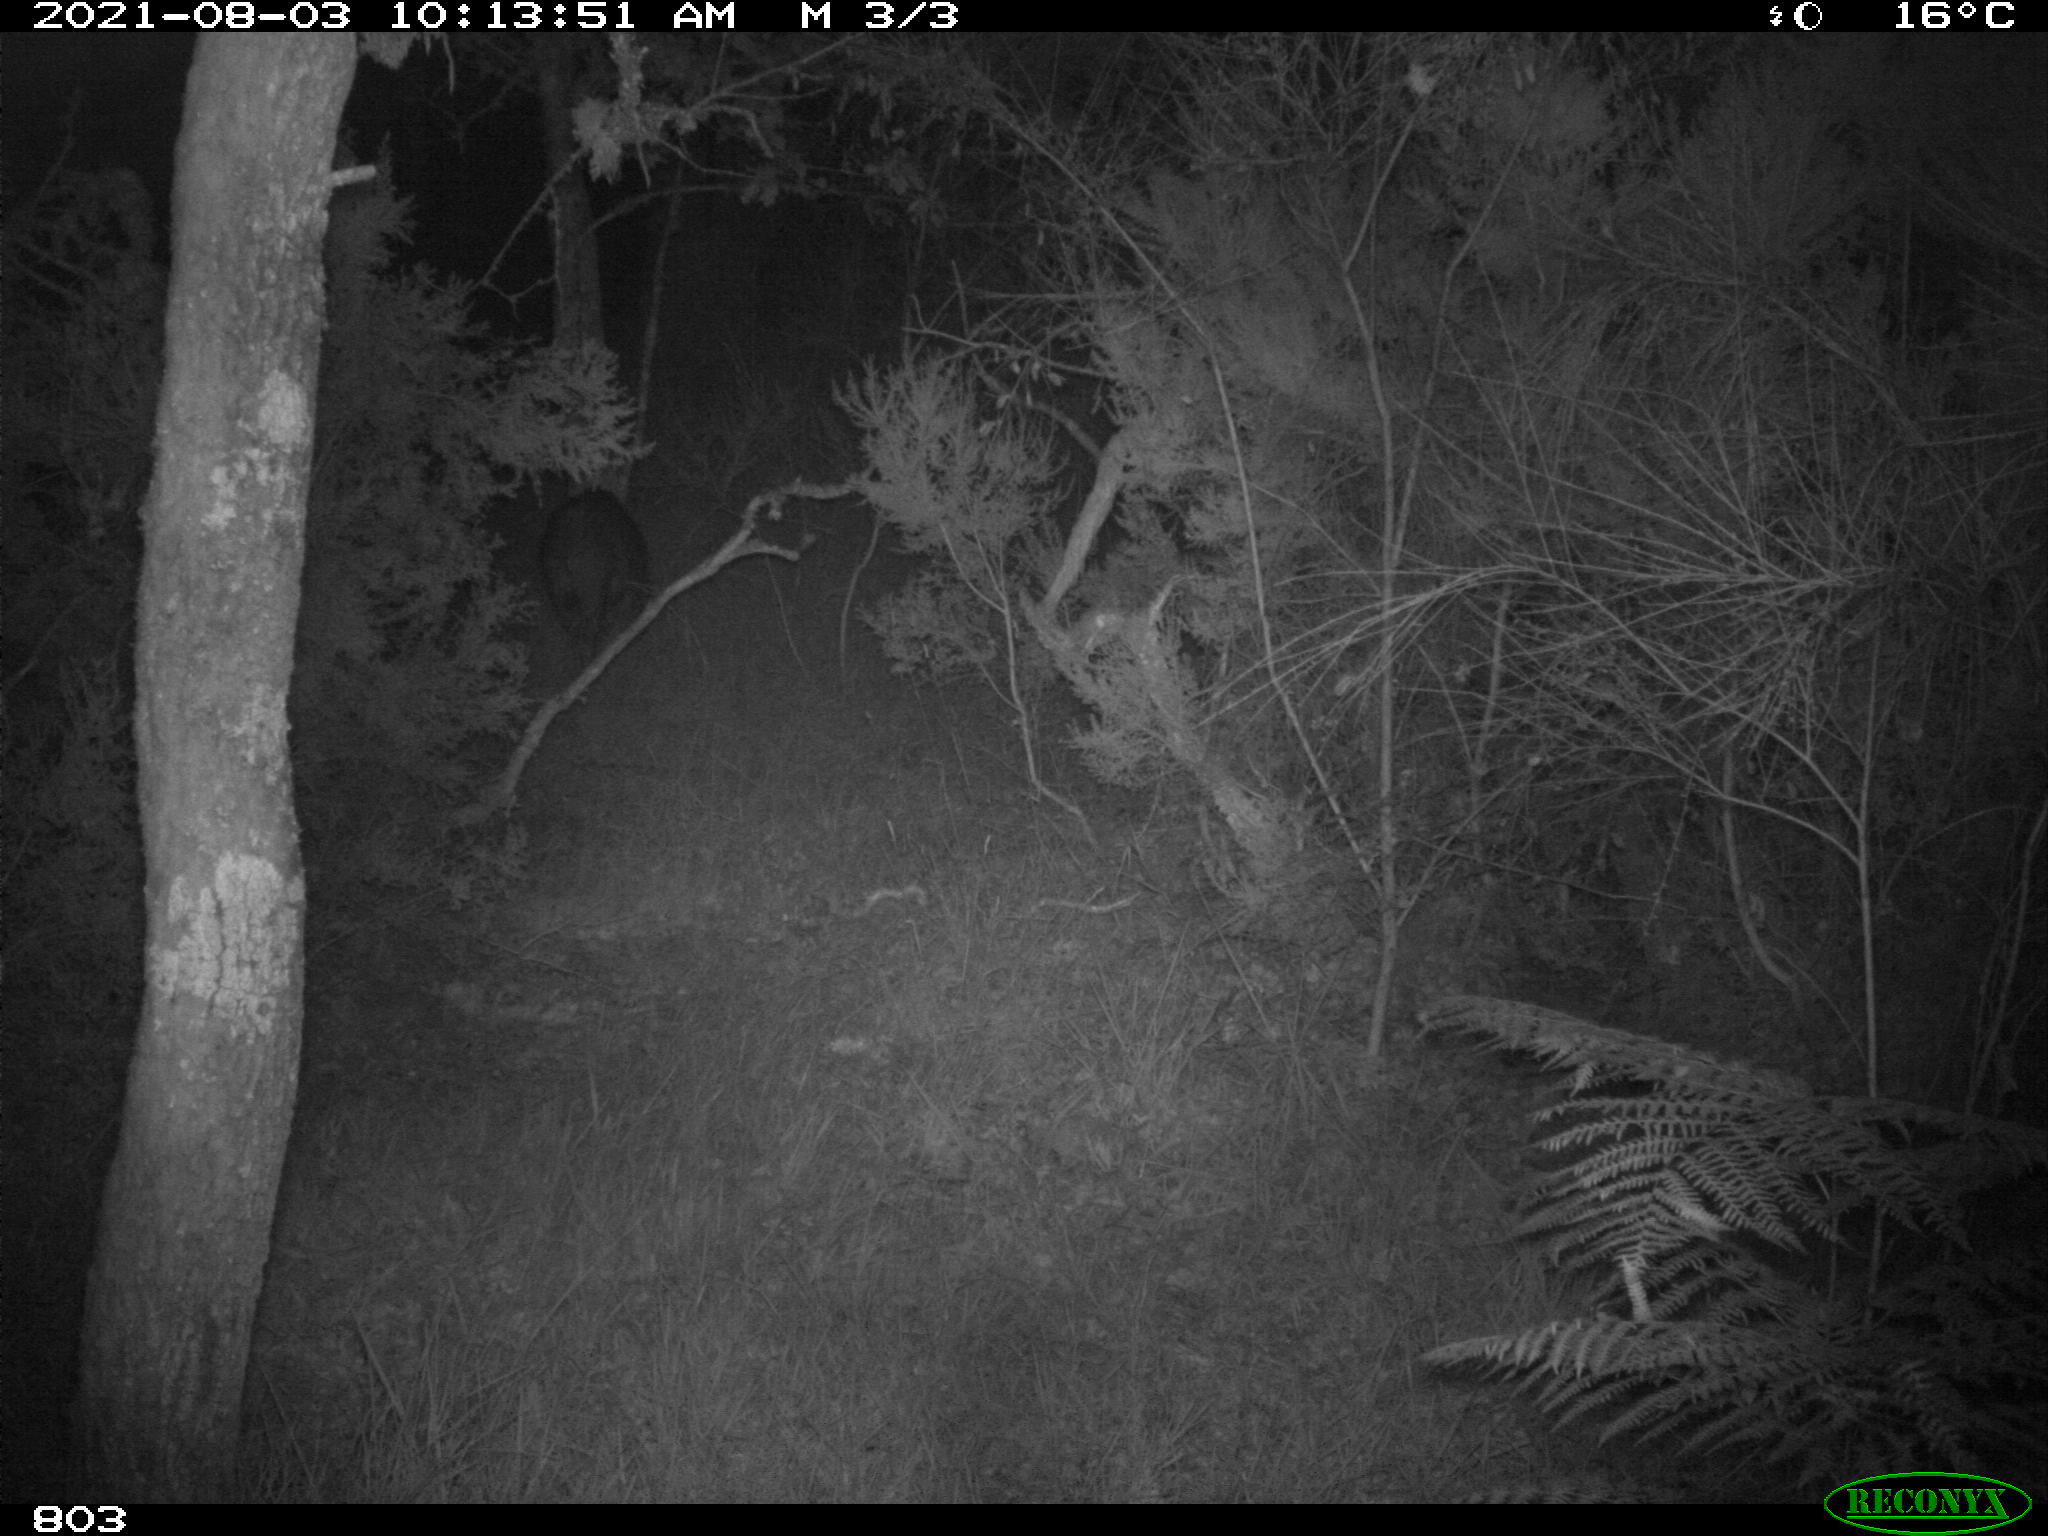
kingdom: Animalia
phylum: Chordata
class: Mammalia
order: Artiodactyla
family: Suidae
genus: Sus
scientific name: Sus scrofa
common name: Wild boar
